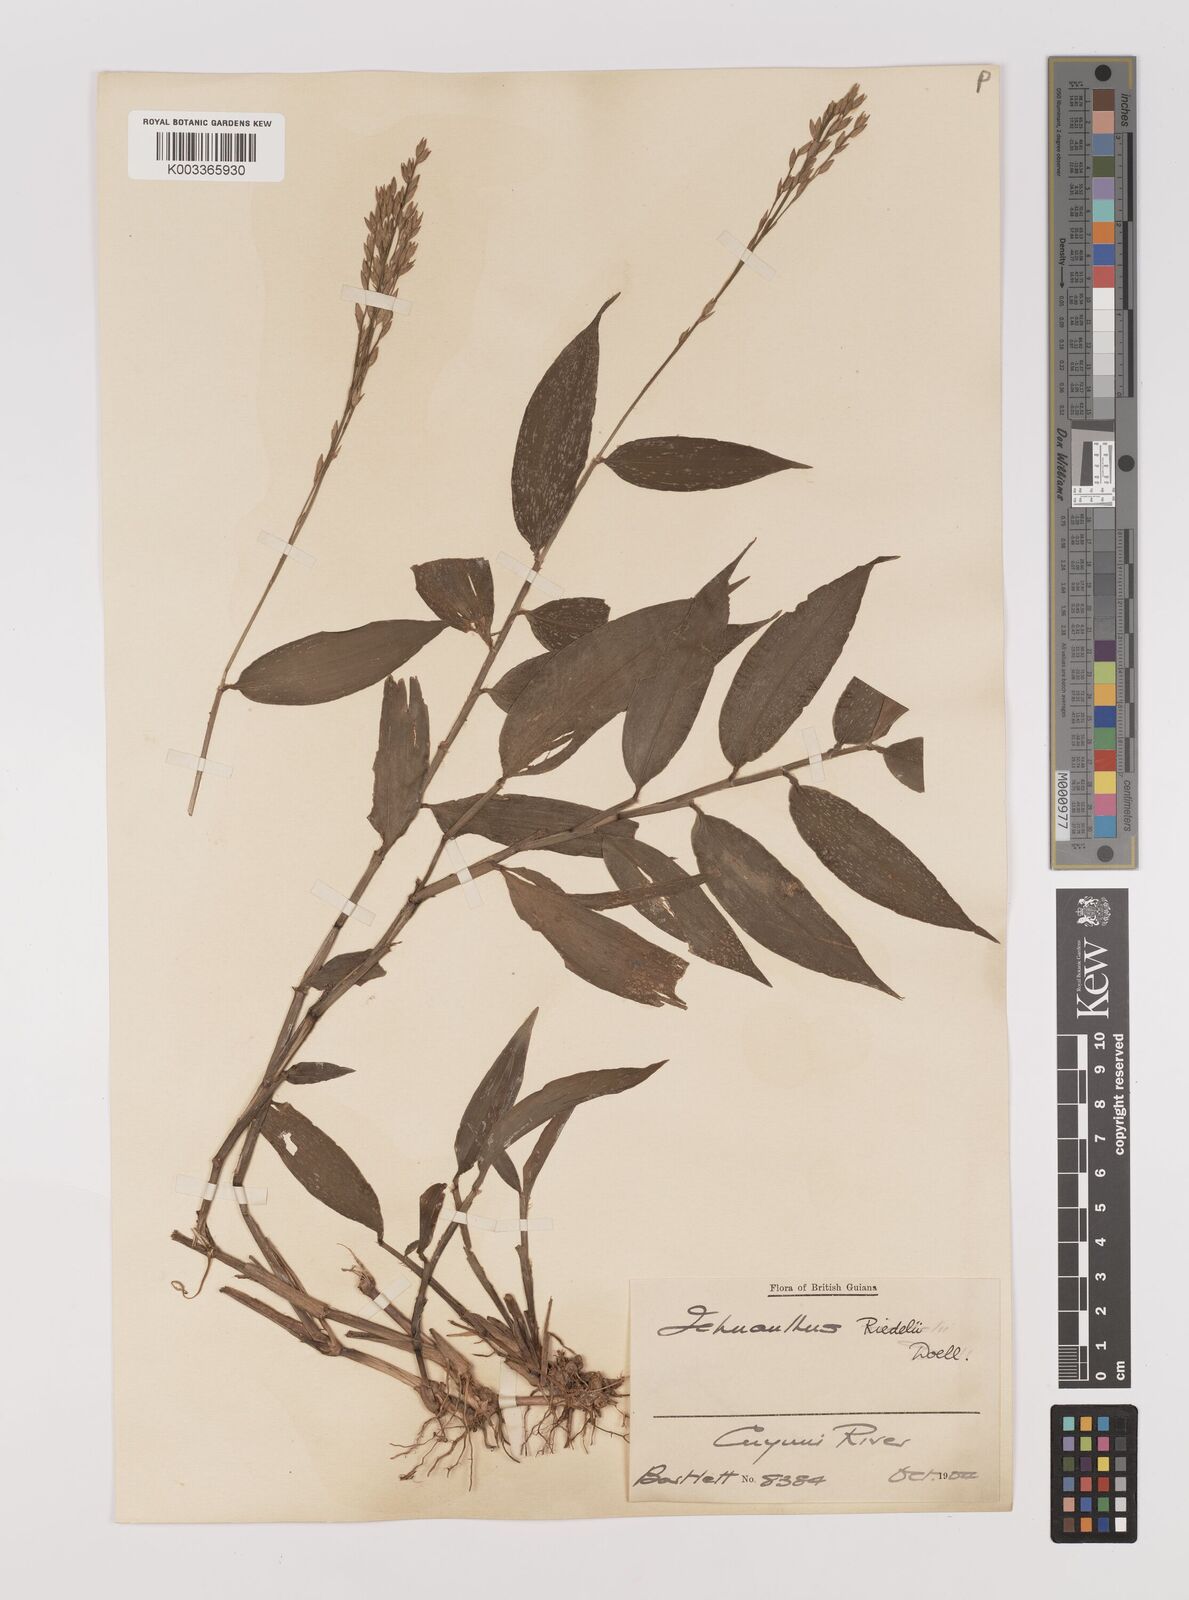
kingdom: Plantae
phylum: Tracheophyta
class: Liliopsida
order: Poales
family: Poaceae
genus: Ichnanthus
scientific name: Ichnanthus nemoralis
